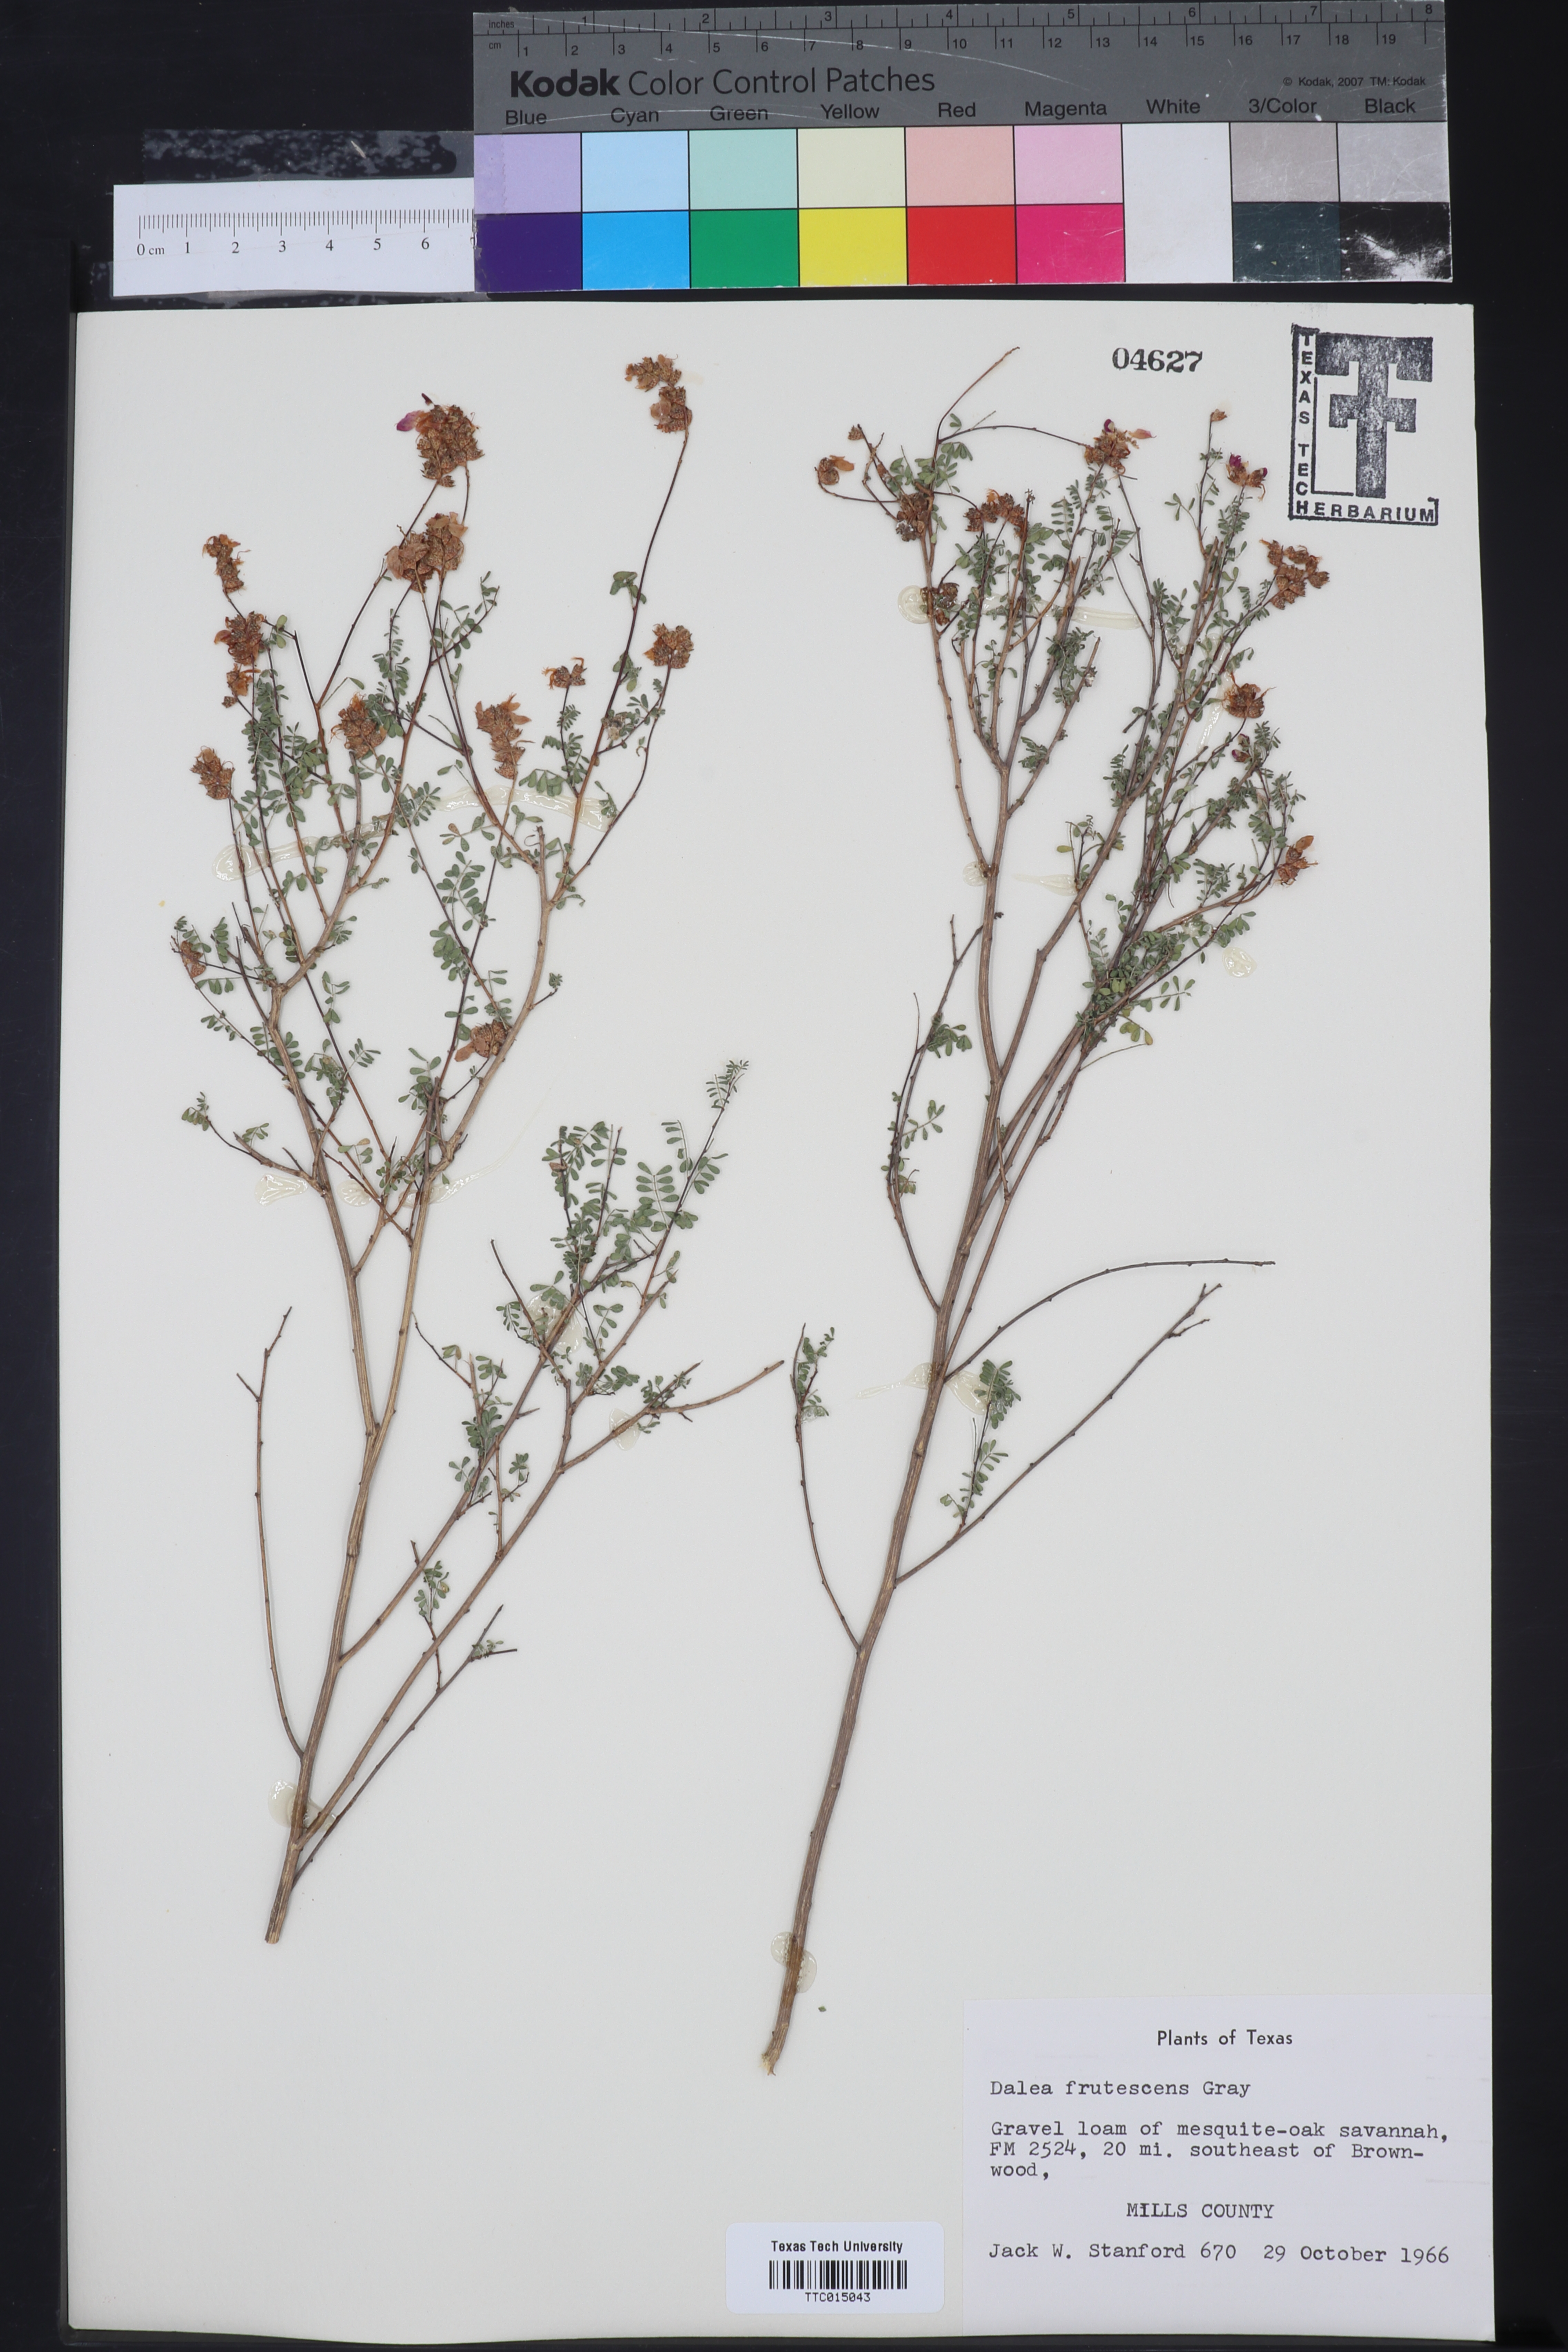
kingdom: Plantae
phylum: Tracheophyta
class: Magnoliopsida
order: Fabales
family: Fabaceae
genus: Dalea
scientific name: Dalea frutescens
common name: Black dalea
